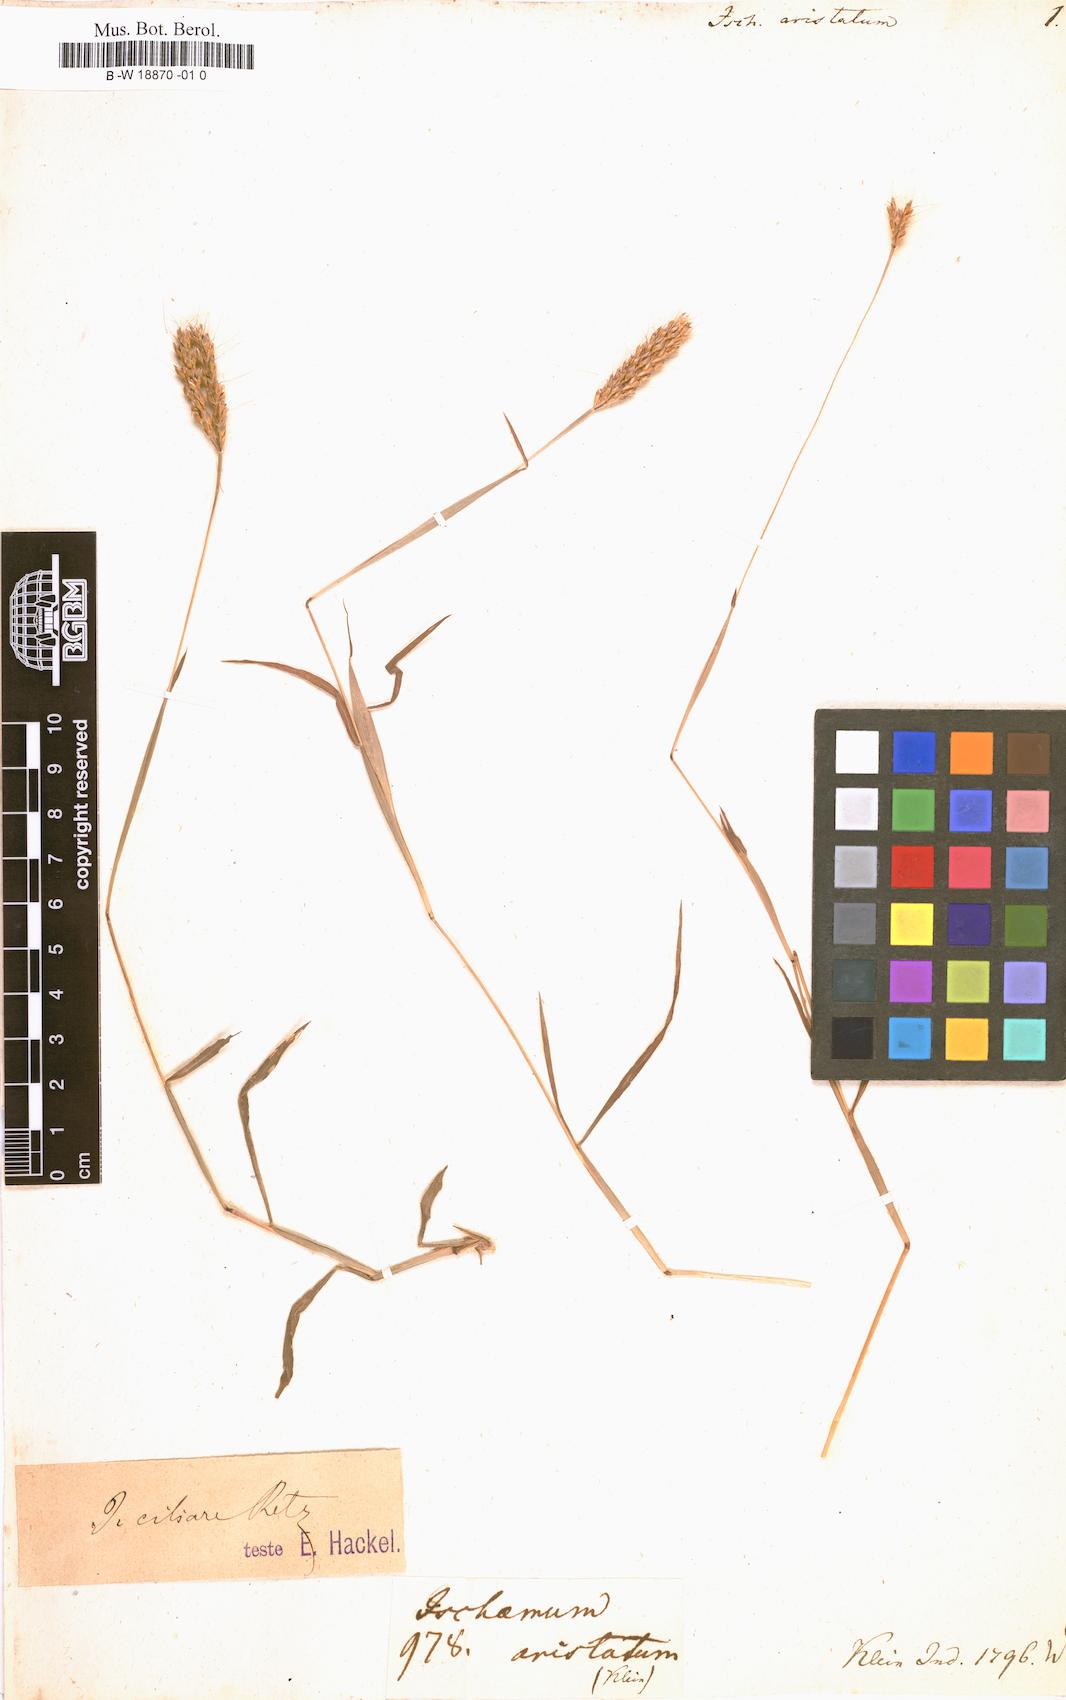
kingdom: Plantae
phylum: Tracheophyta
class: Liliopsida
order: Poales
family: Poaceae
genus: Ischaemum
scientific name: Ischaemum aristatum
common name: Toco grass
